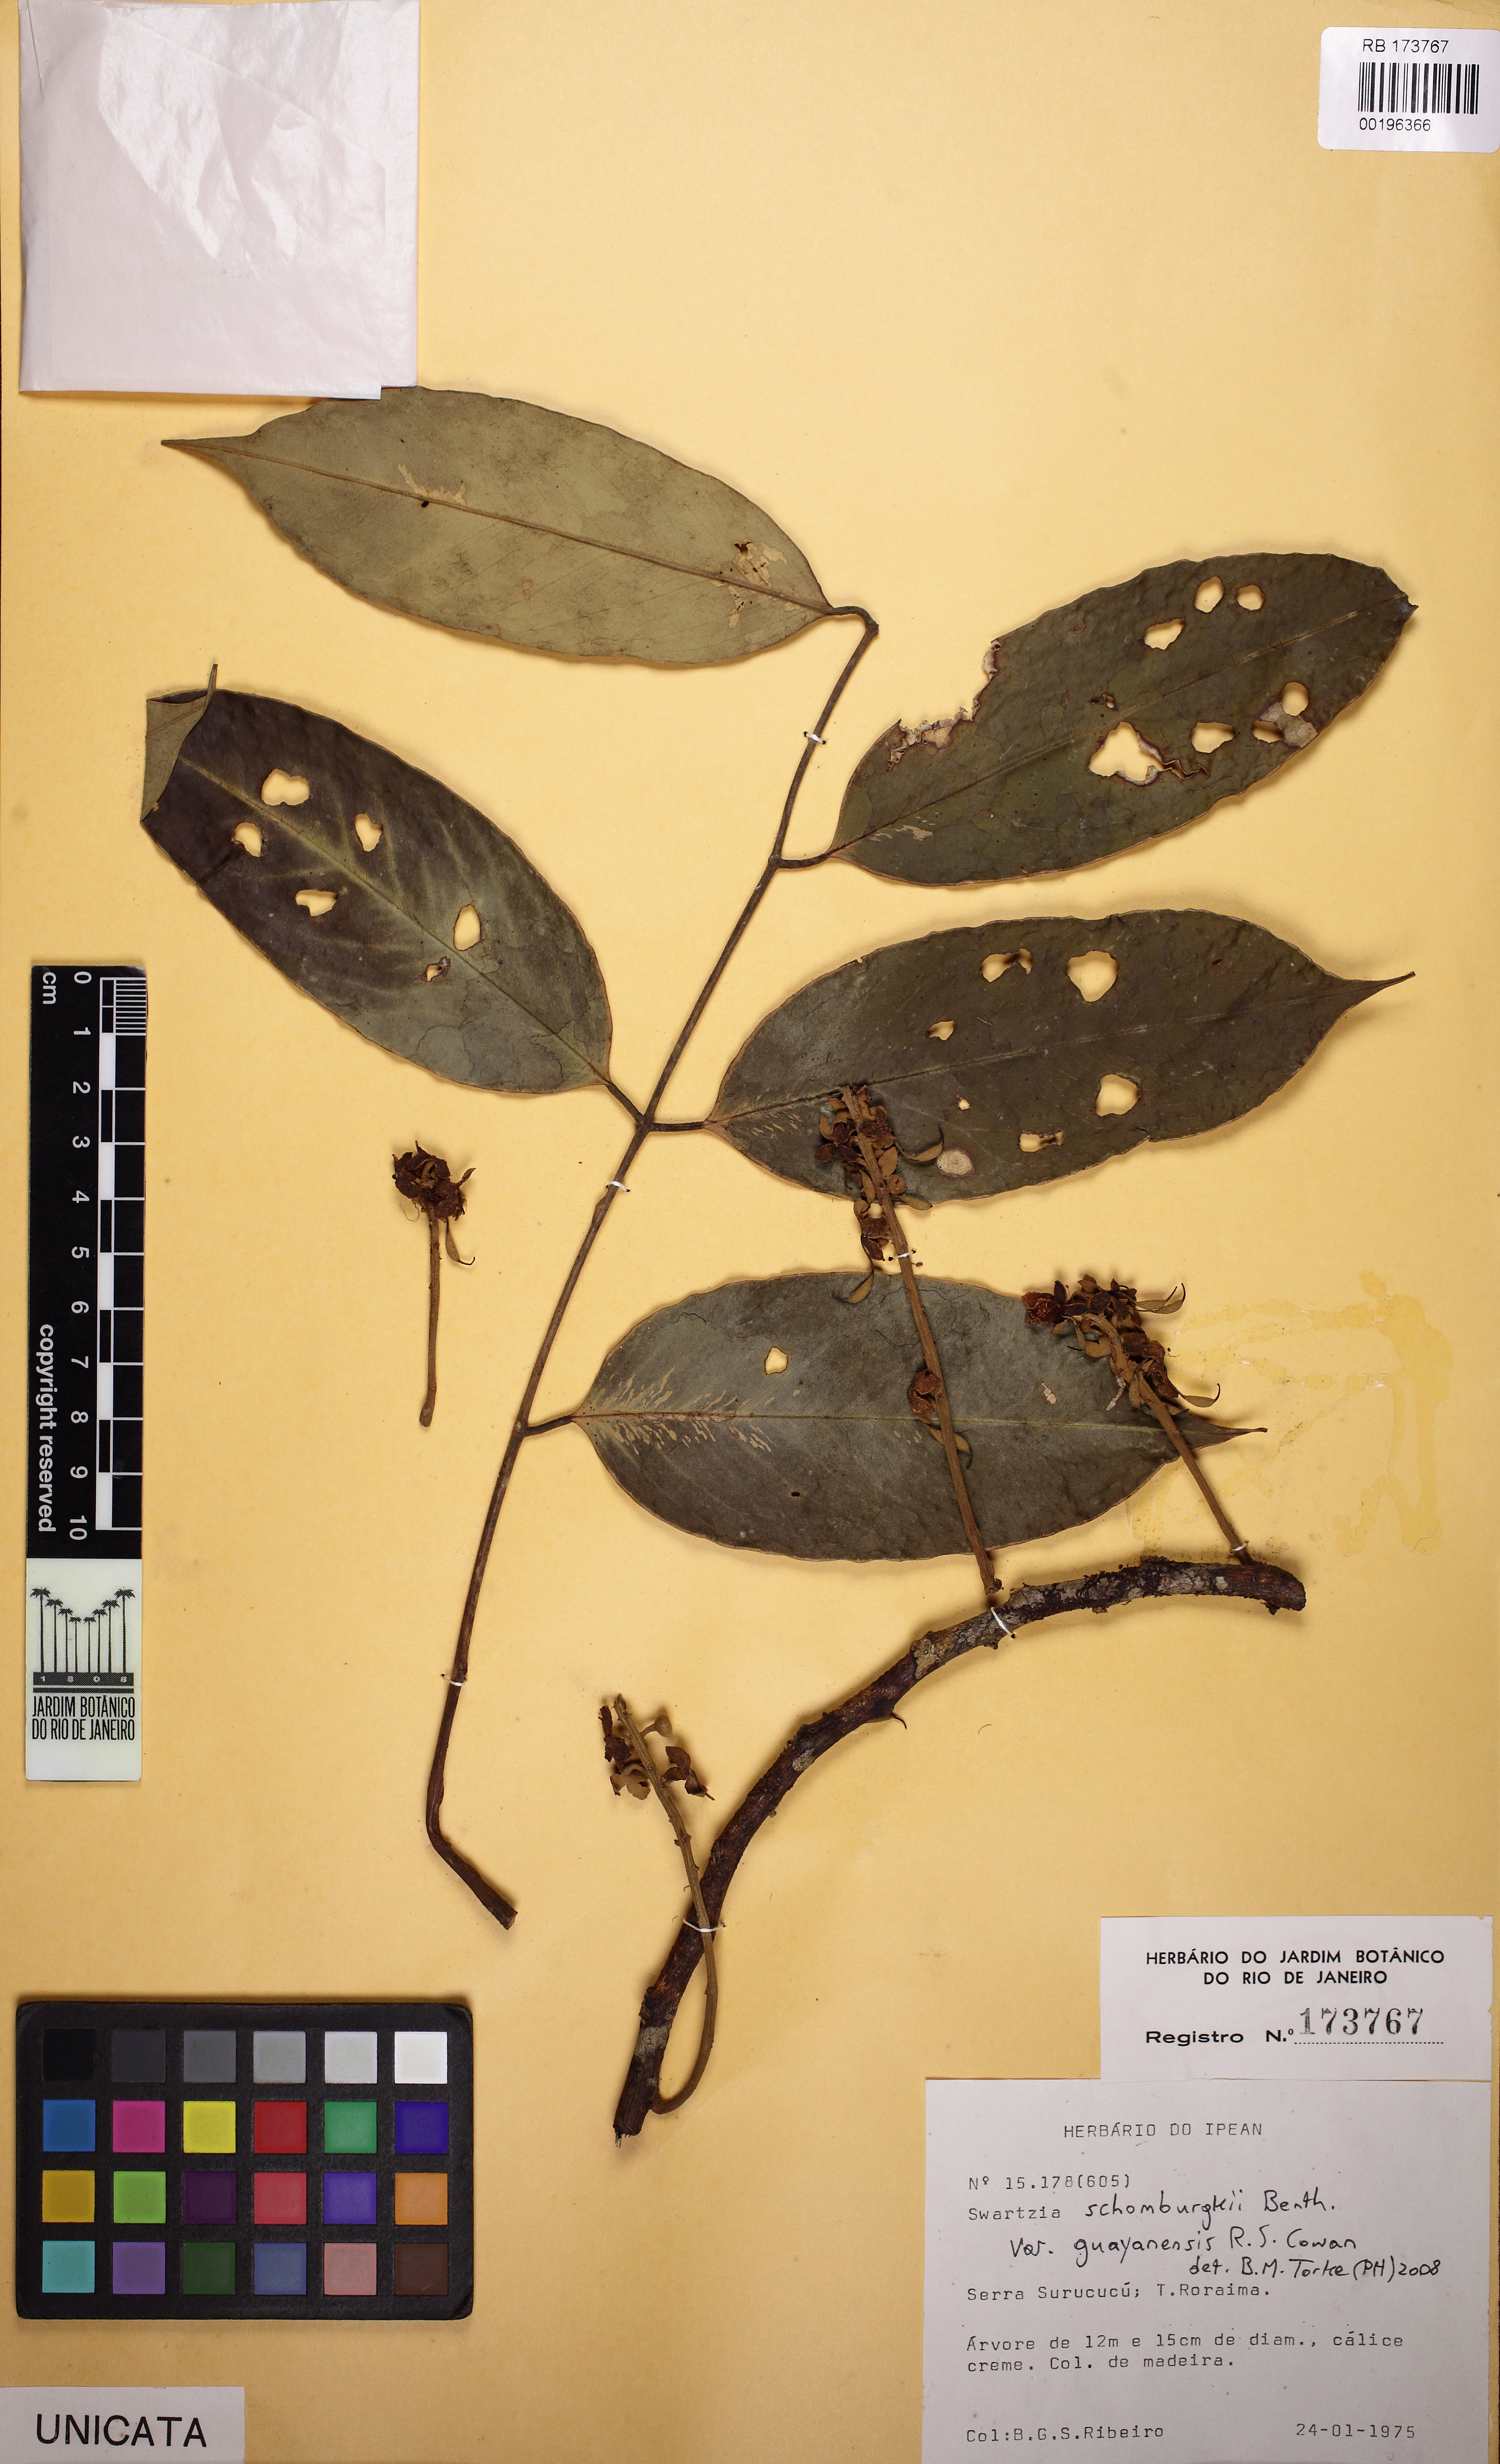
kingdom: Plantae
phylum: Tracheophyta
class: Magnoliopsida
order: Fabales
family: Fabaceae
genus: Swartzia
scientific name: Swartzia schomburgkii
